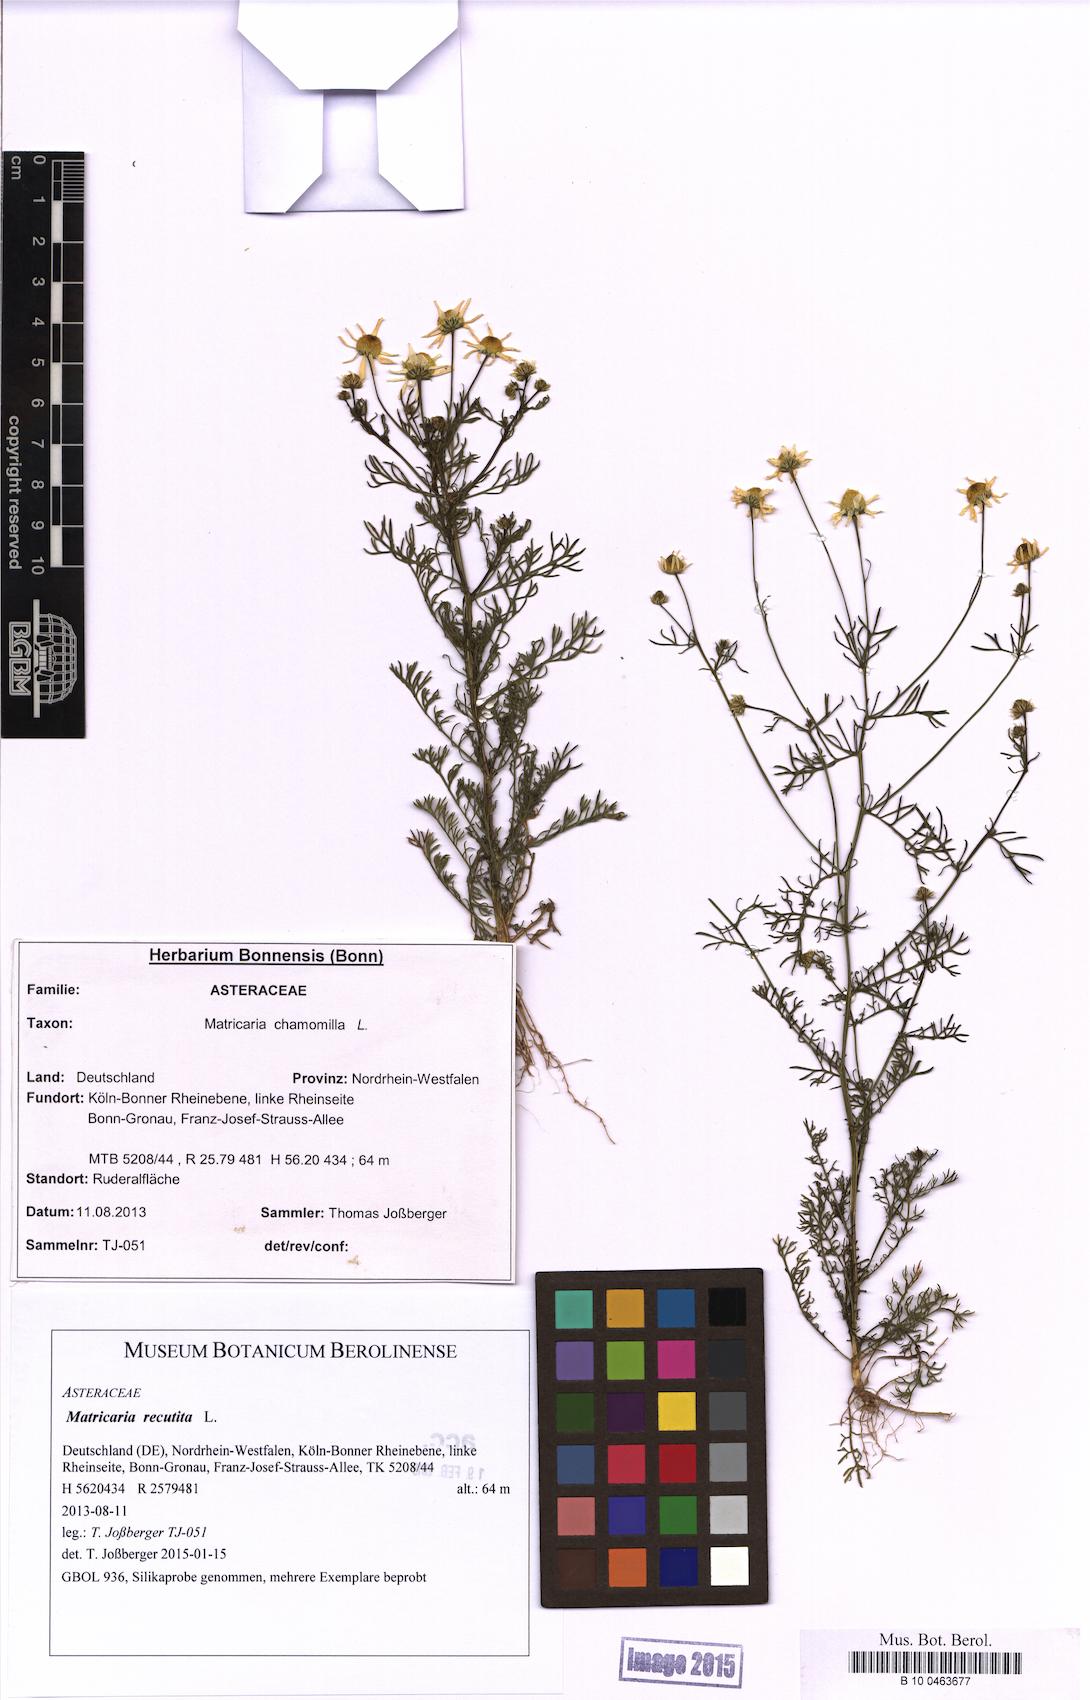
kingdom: Plantae
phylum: Tracheophyta
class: Magnoliopsida
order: Asterales
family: Asteraceae
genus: Matricaria
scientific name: Matricaria chamomilla
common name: Scented mayweed
